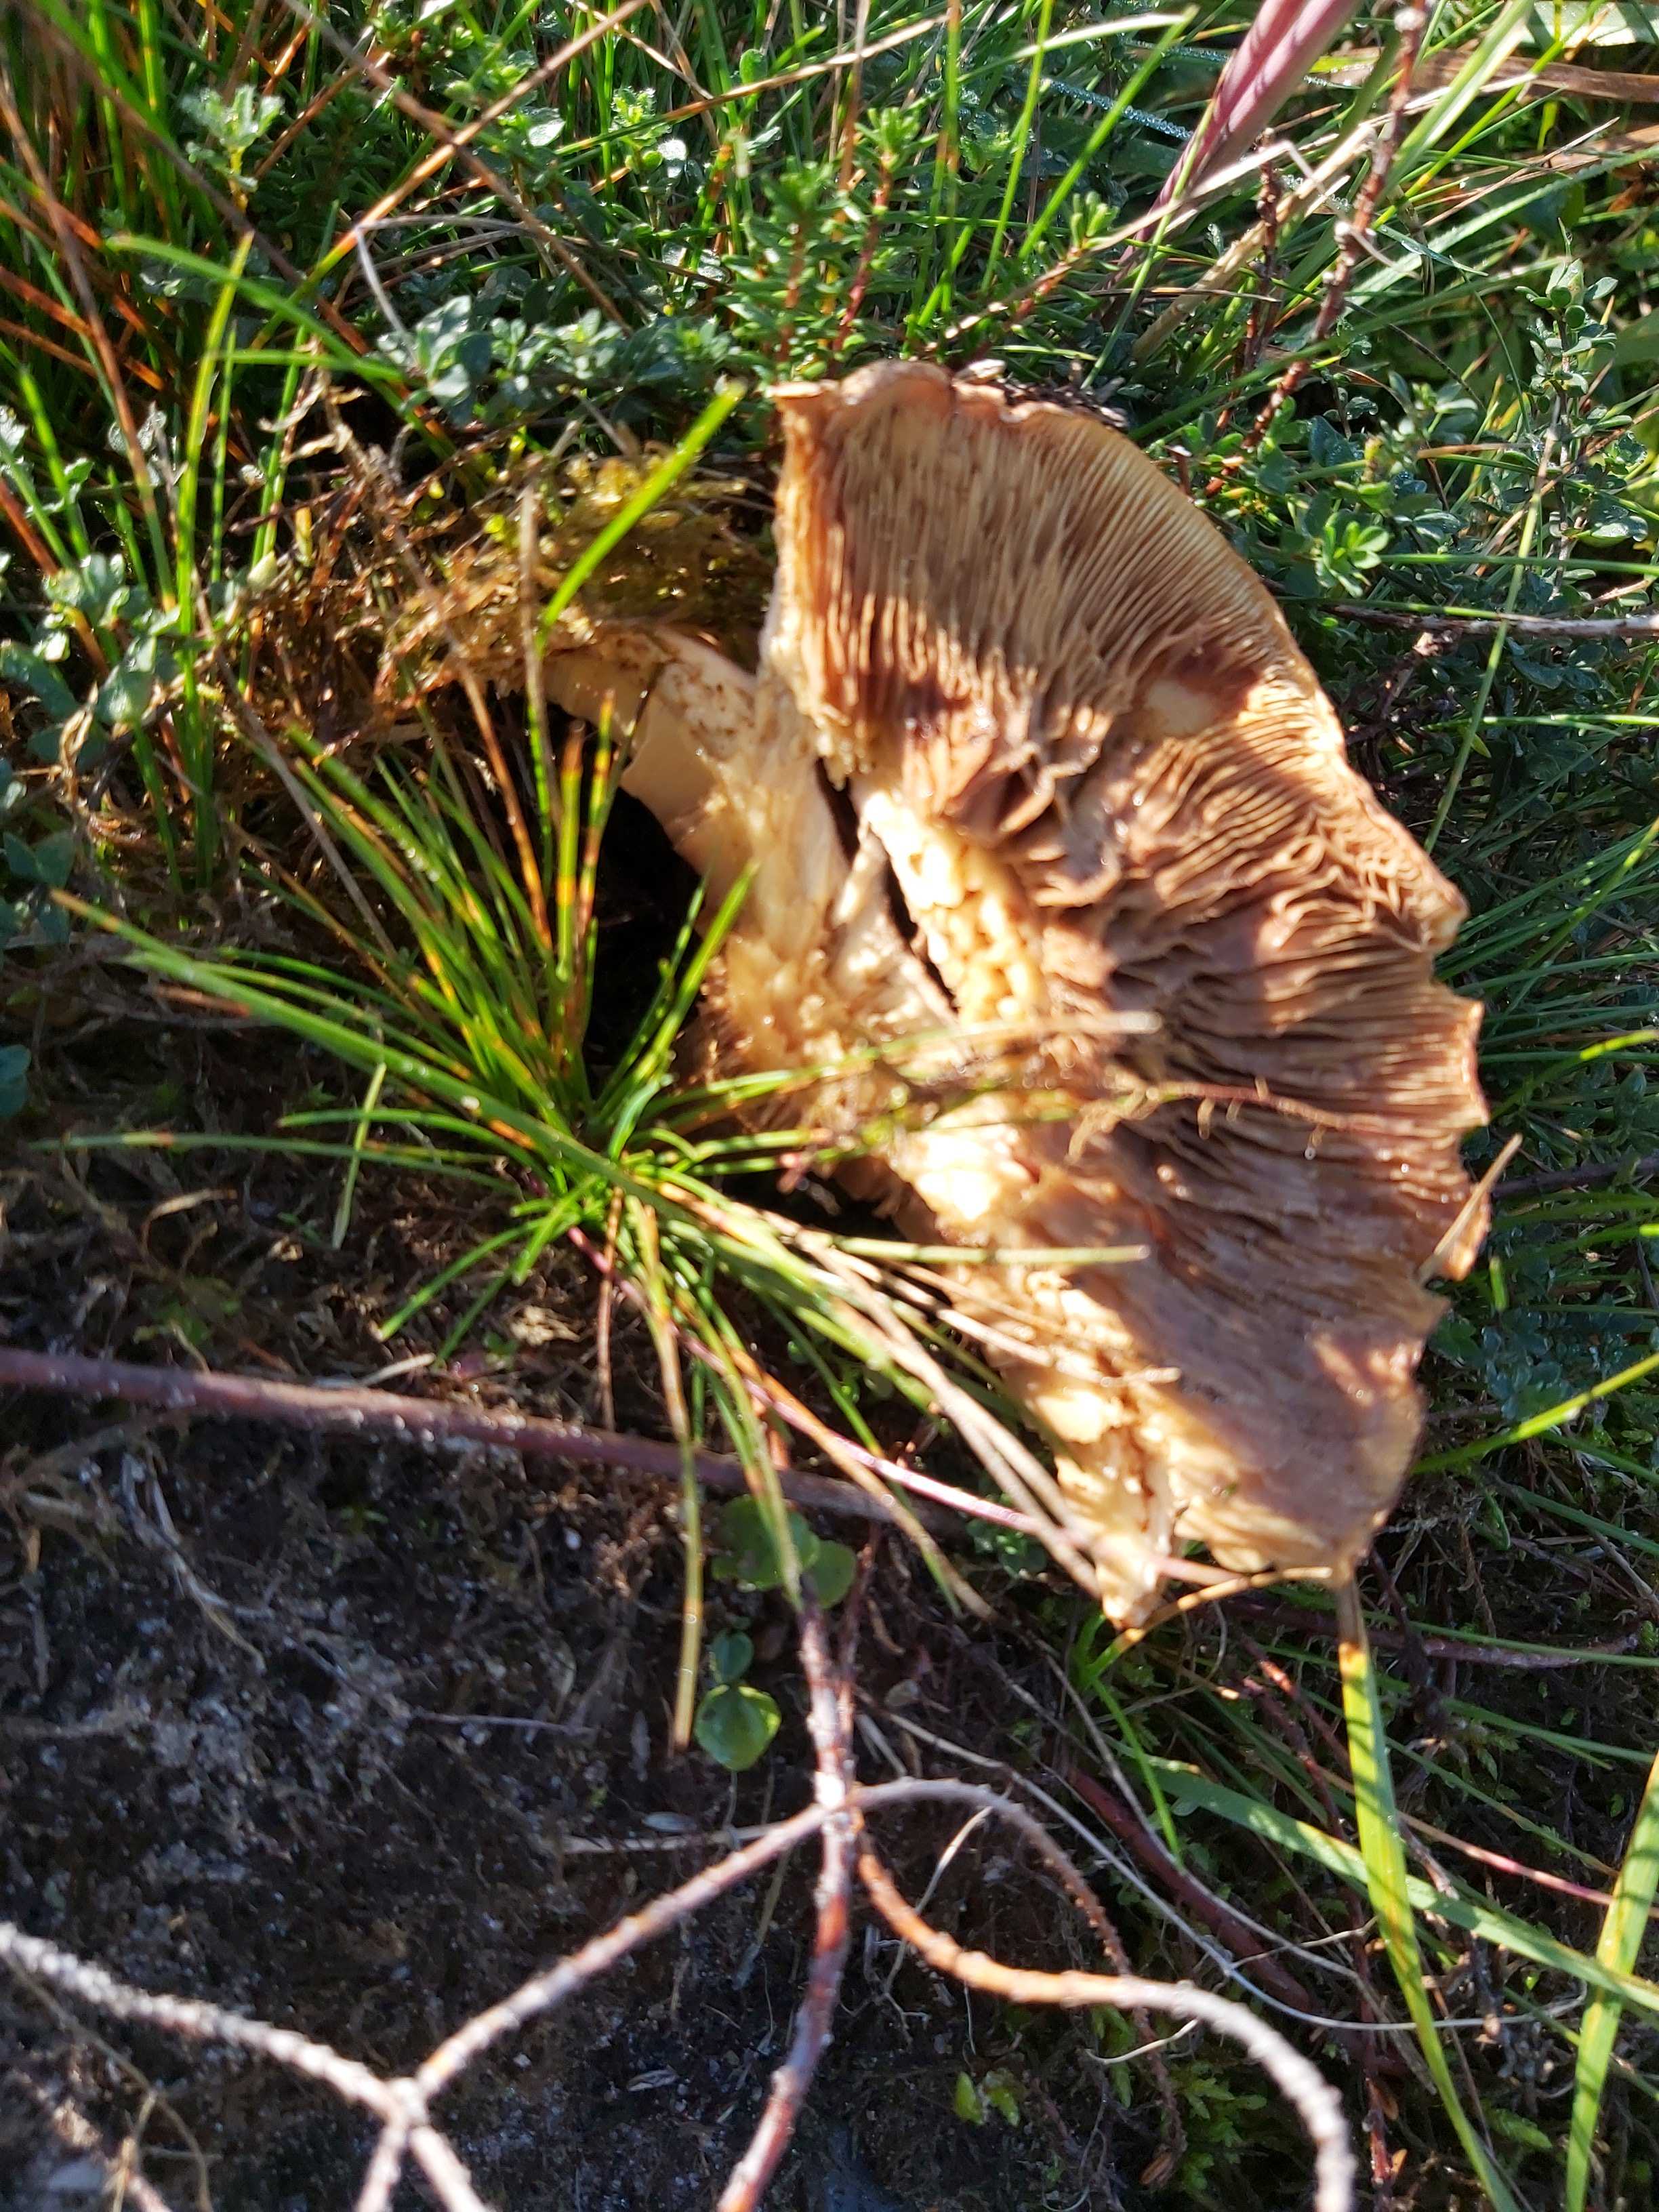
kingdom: Fungi
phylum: Basidiomycota
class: Agaricomycetes
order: Boletales
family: Paxillaceae
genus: Paxillus
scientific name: Paxillus
